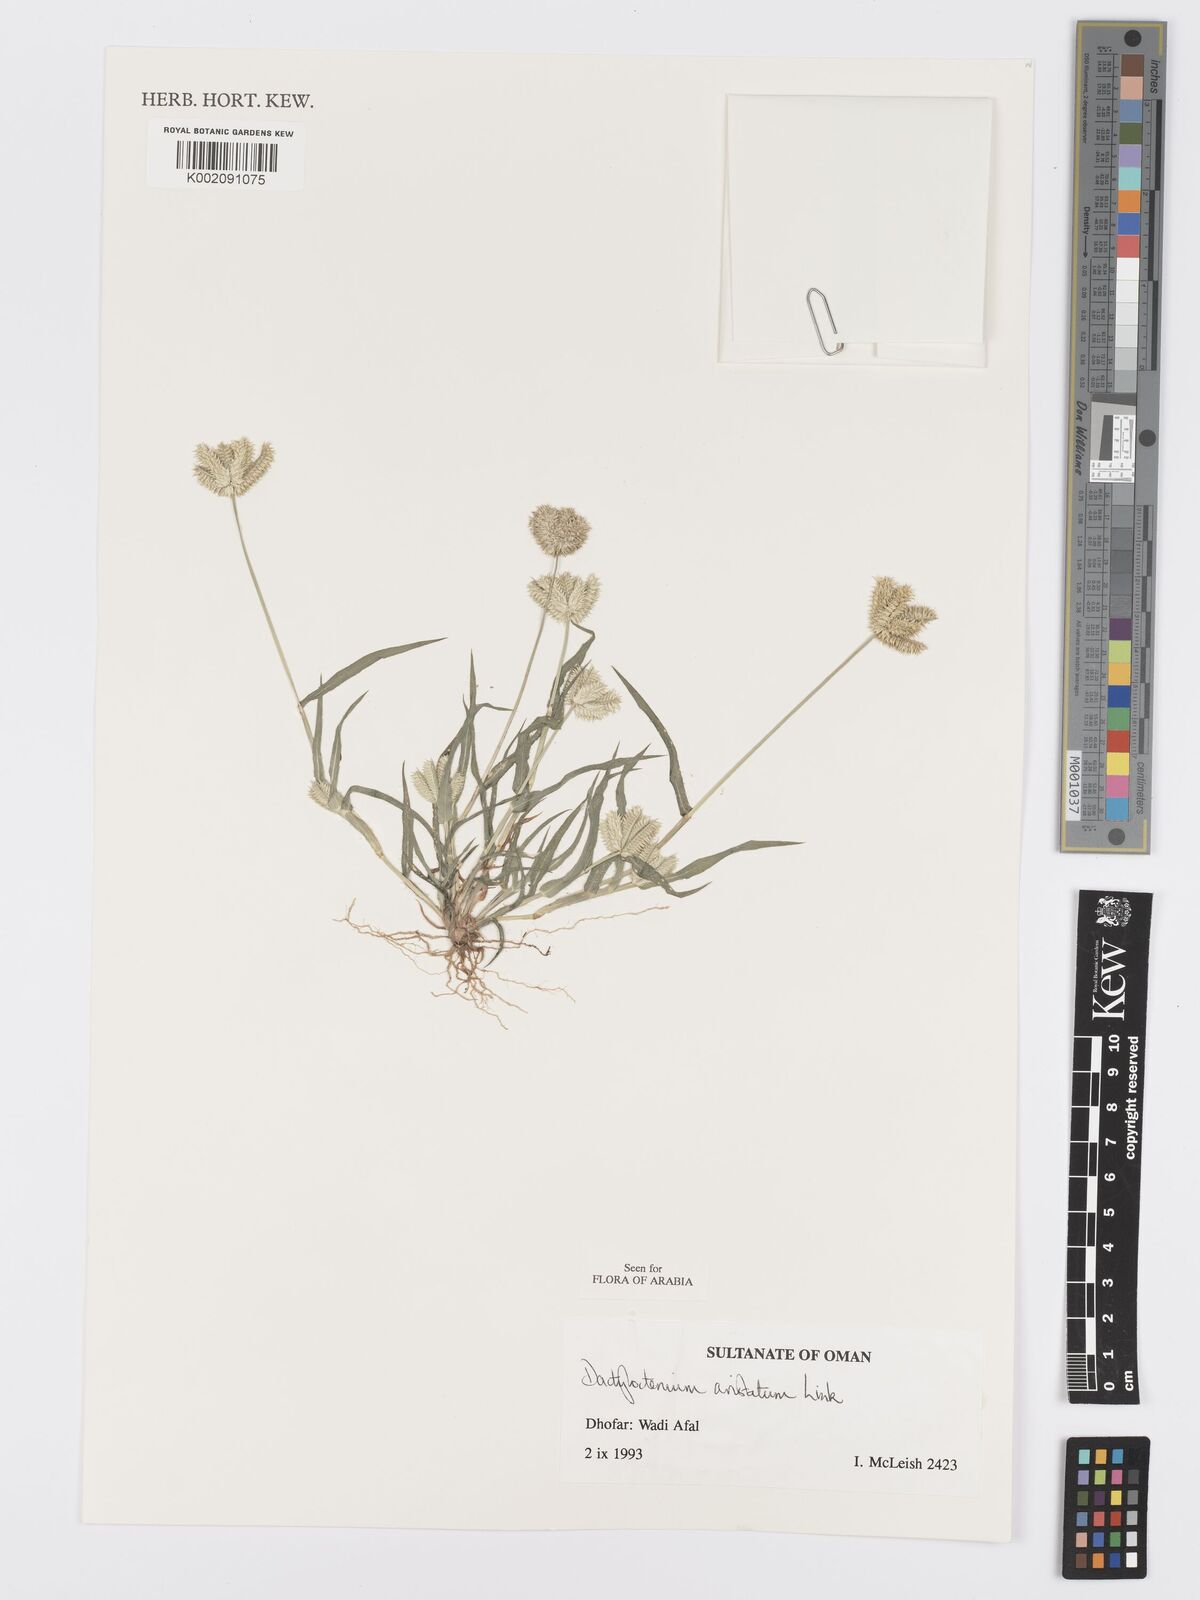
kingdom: Plantae
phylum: Tracheophyta
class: Liliopsida
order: Poales
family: Poaceae
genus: Dactyloctenium
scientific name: Dactyloctenium aristatum
